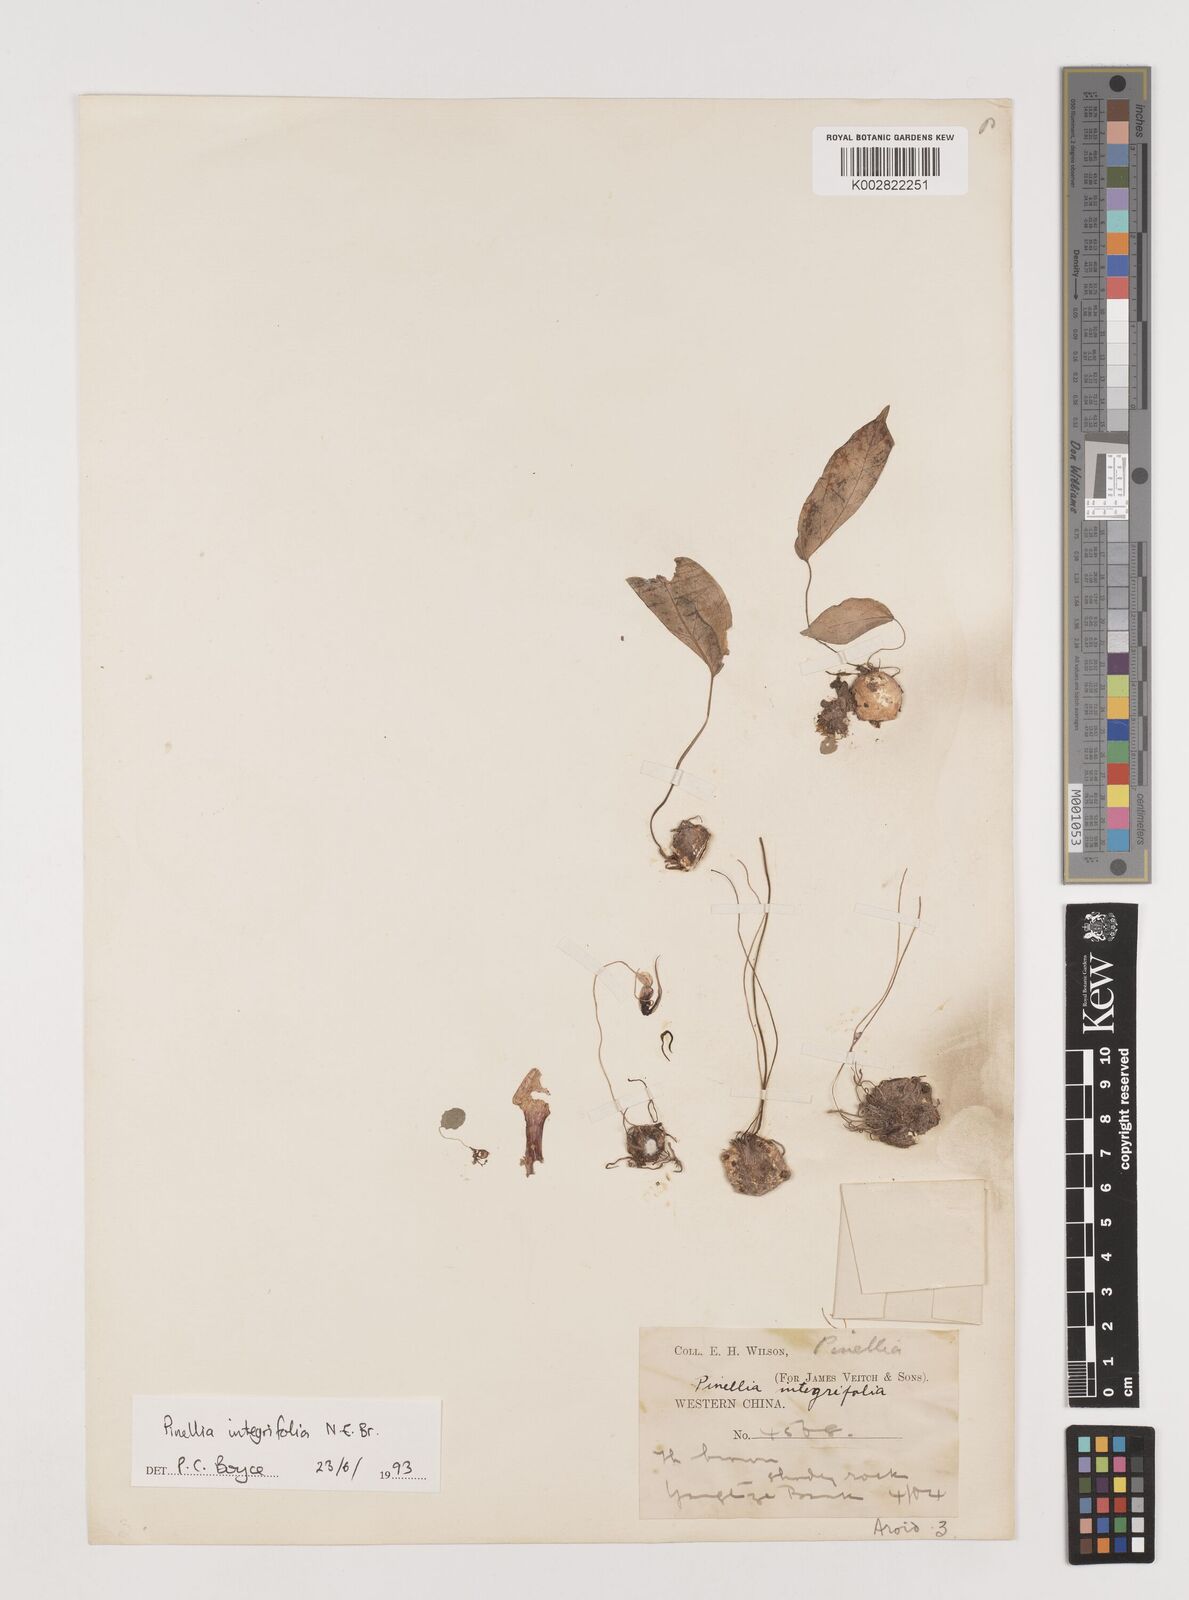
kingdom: Plantae
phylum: Tracheophyta
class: Liliopsida
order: Alismatales
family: Araceae
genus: Pinellia
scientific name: Pinellia integrifolia
